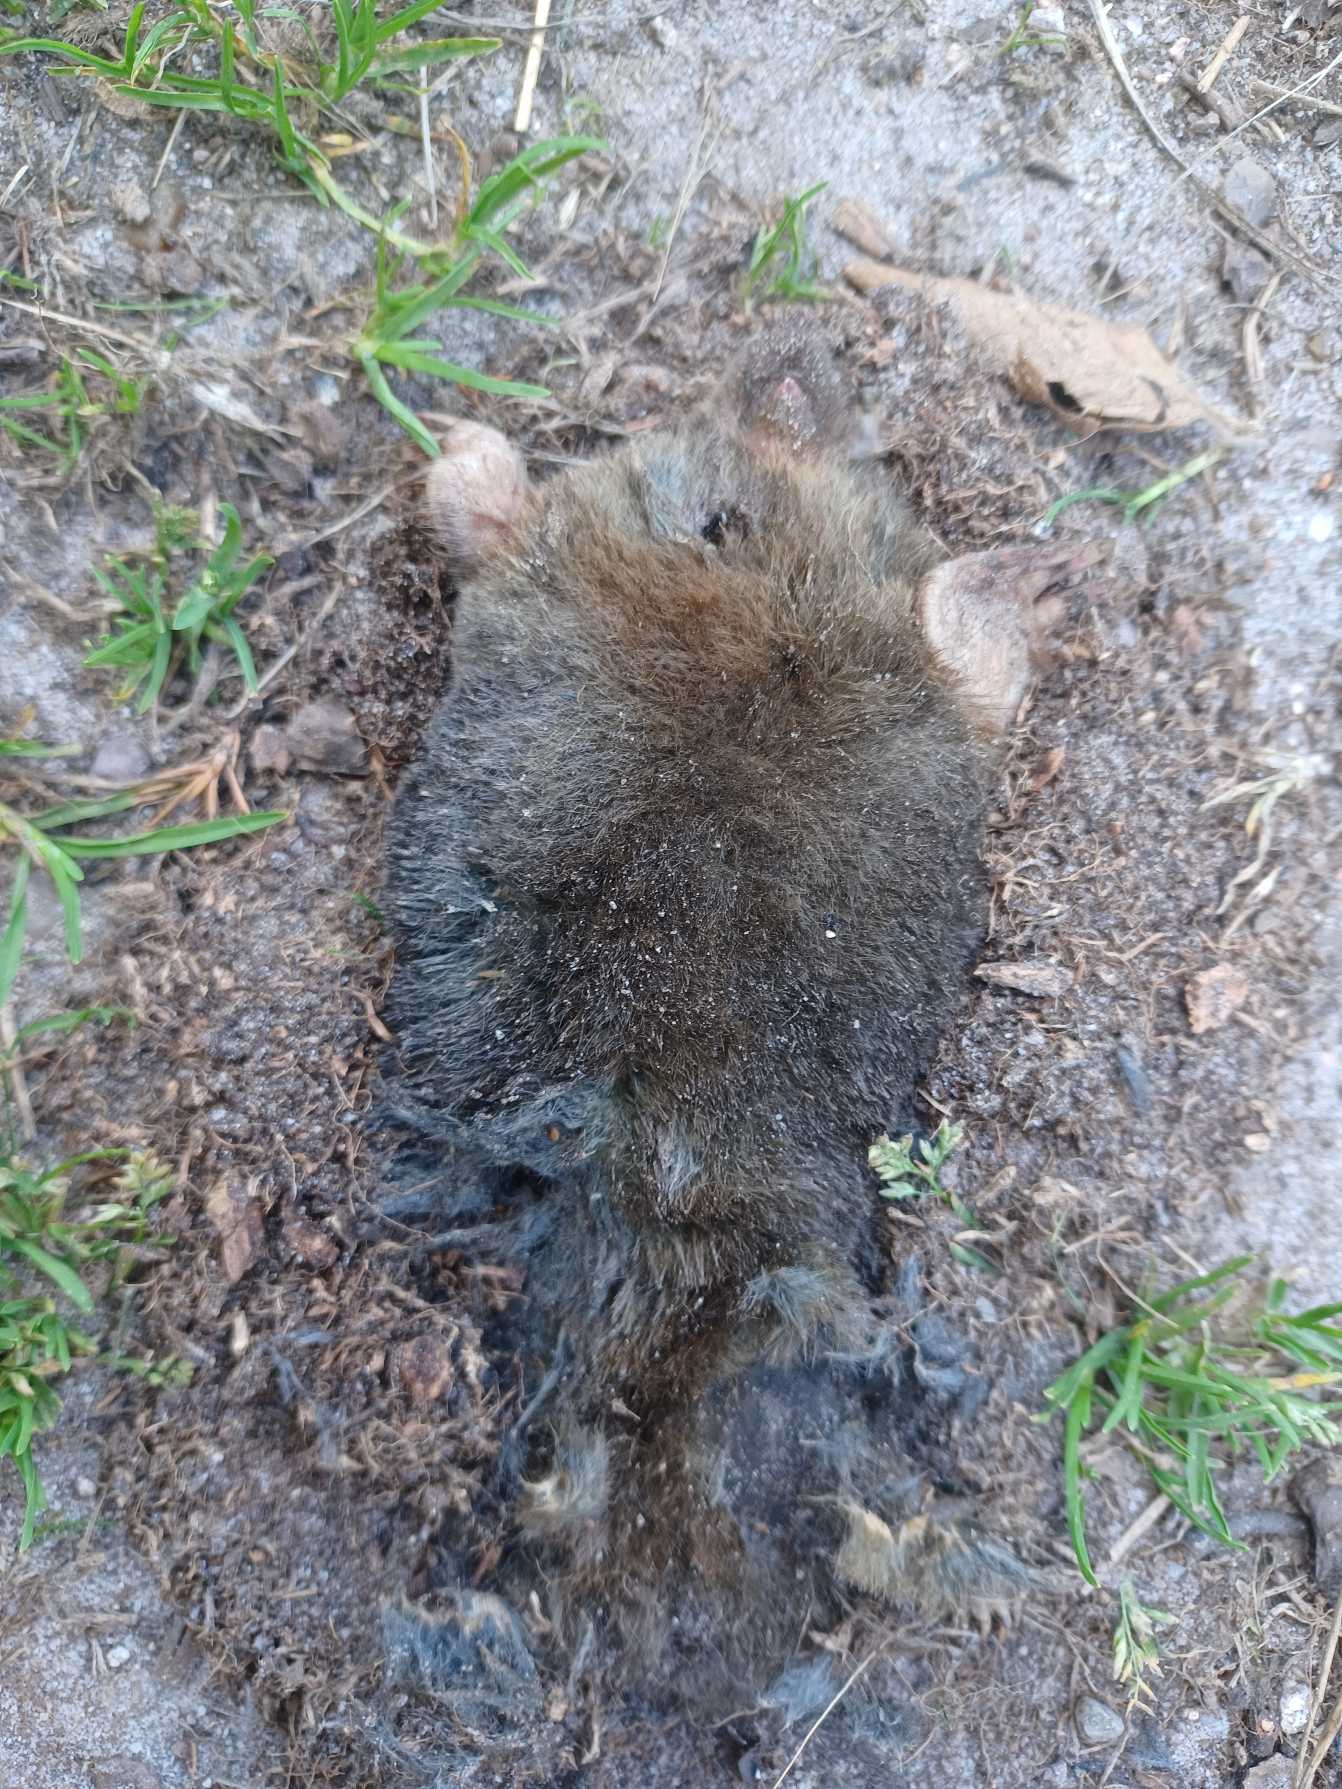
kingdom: Animalia
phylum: Chordata
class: Mammalia
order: Soricomorpha
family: Talpidae
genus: Talpa
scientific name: Talpa europaea
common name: Muldvarp
